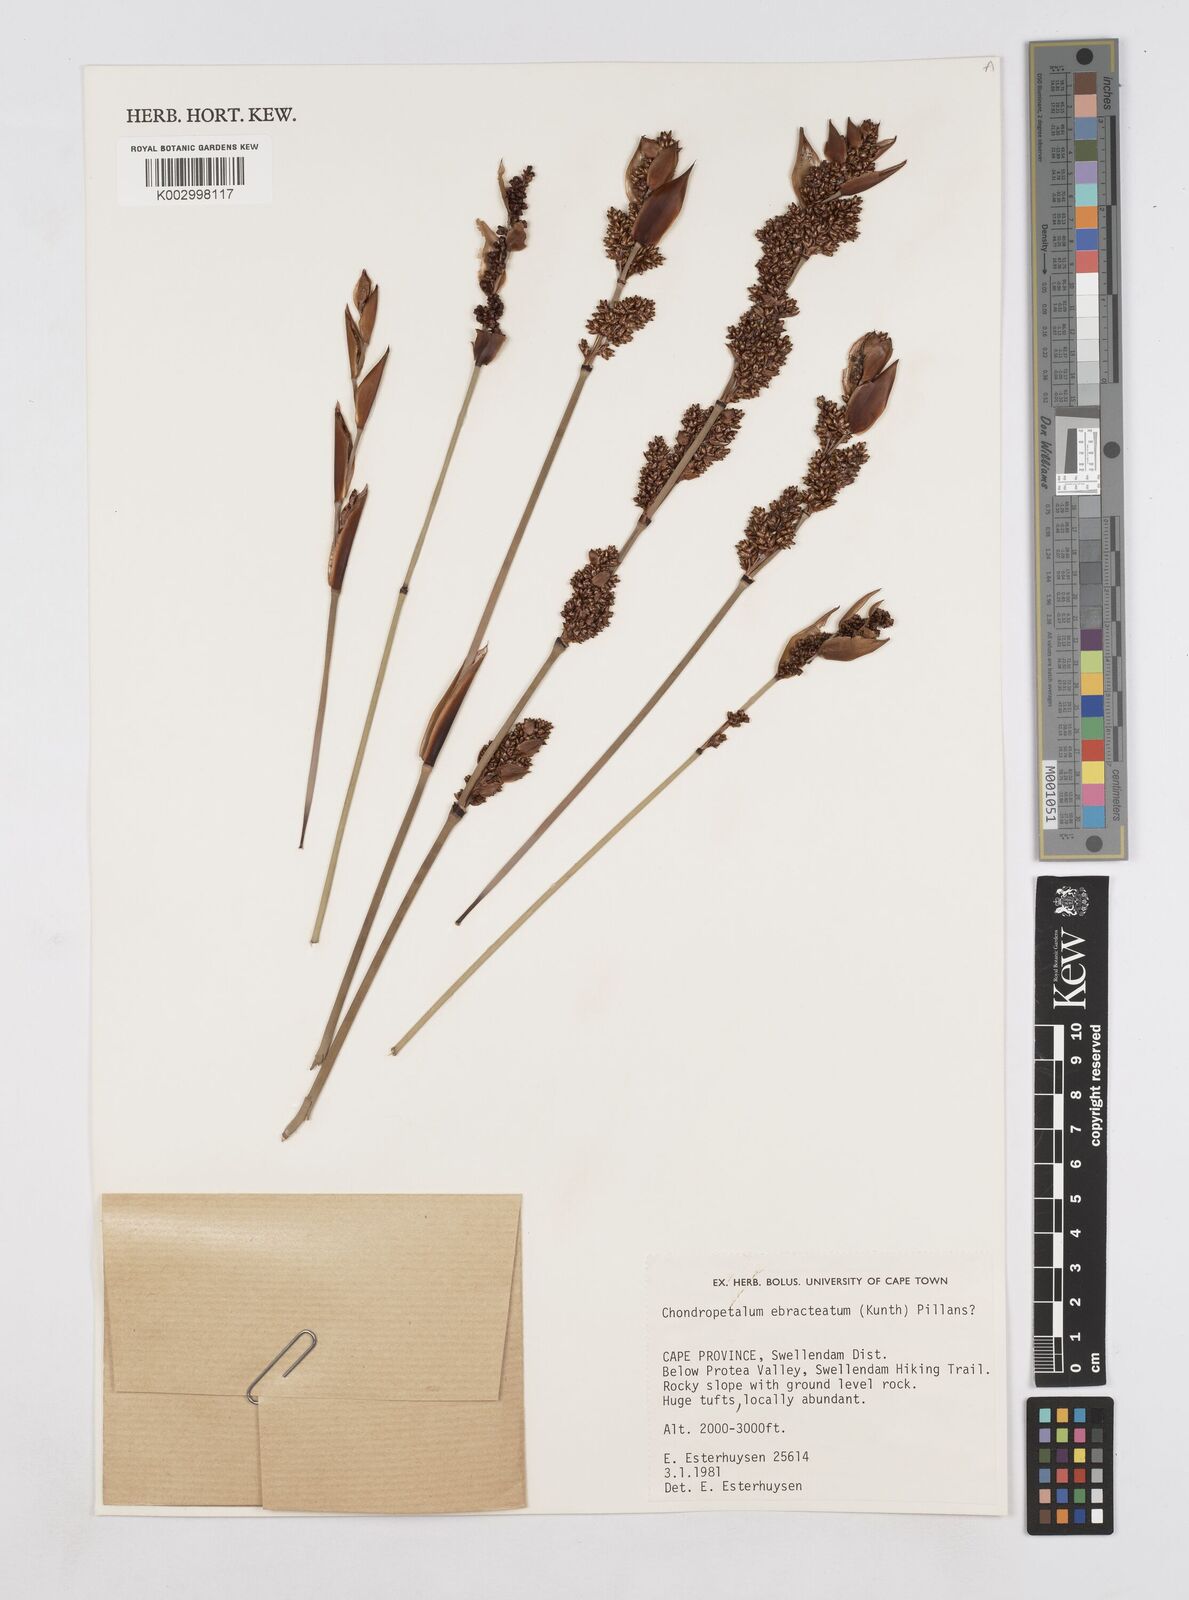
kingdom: Plantae
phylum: Tracheophyta
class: Liliopsida
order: Poales
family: Restionaceae
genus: Elegia
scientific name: Elegia ebracteata
